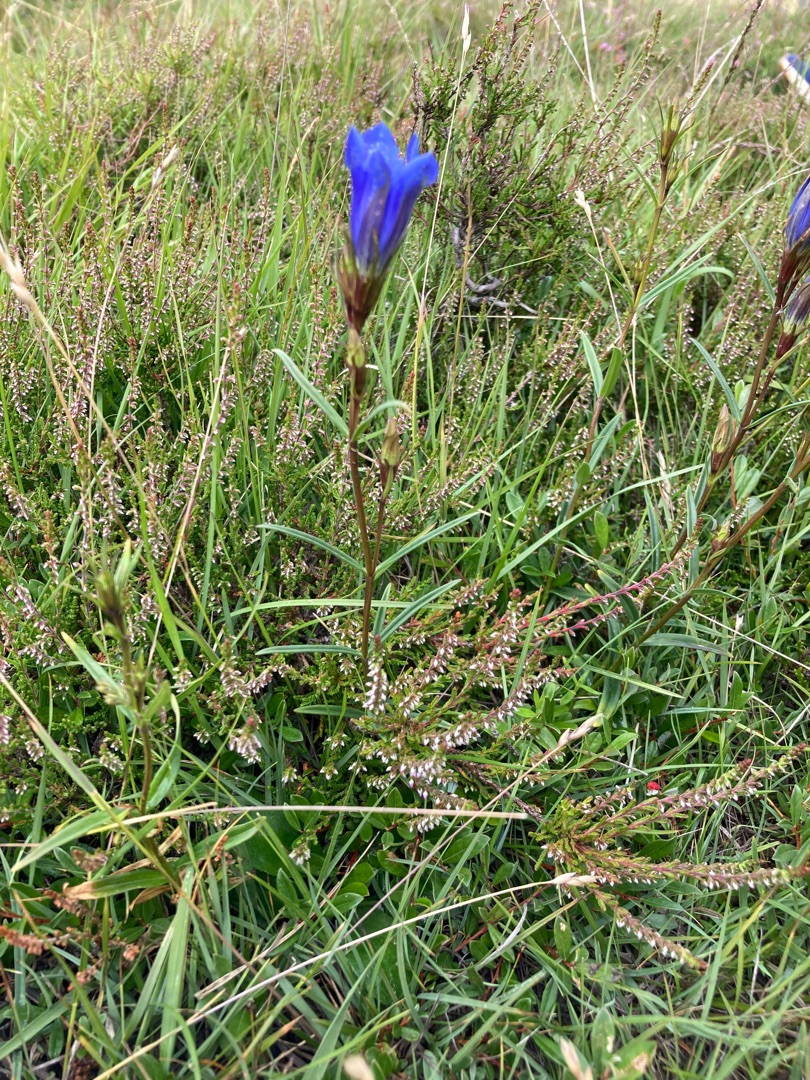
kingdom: Plantae
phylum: Tracheophyta
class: Magnoliopsida
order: Gentianales
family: Gentianaceae
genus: Gentiana
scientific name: Gentiana pneumonanthe
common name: Klokke-ensian
